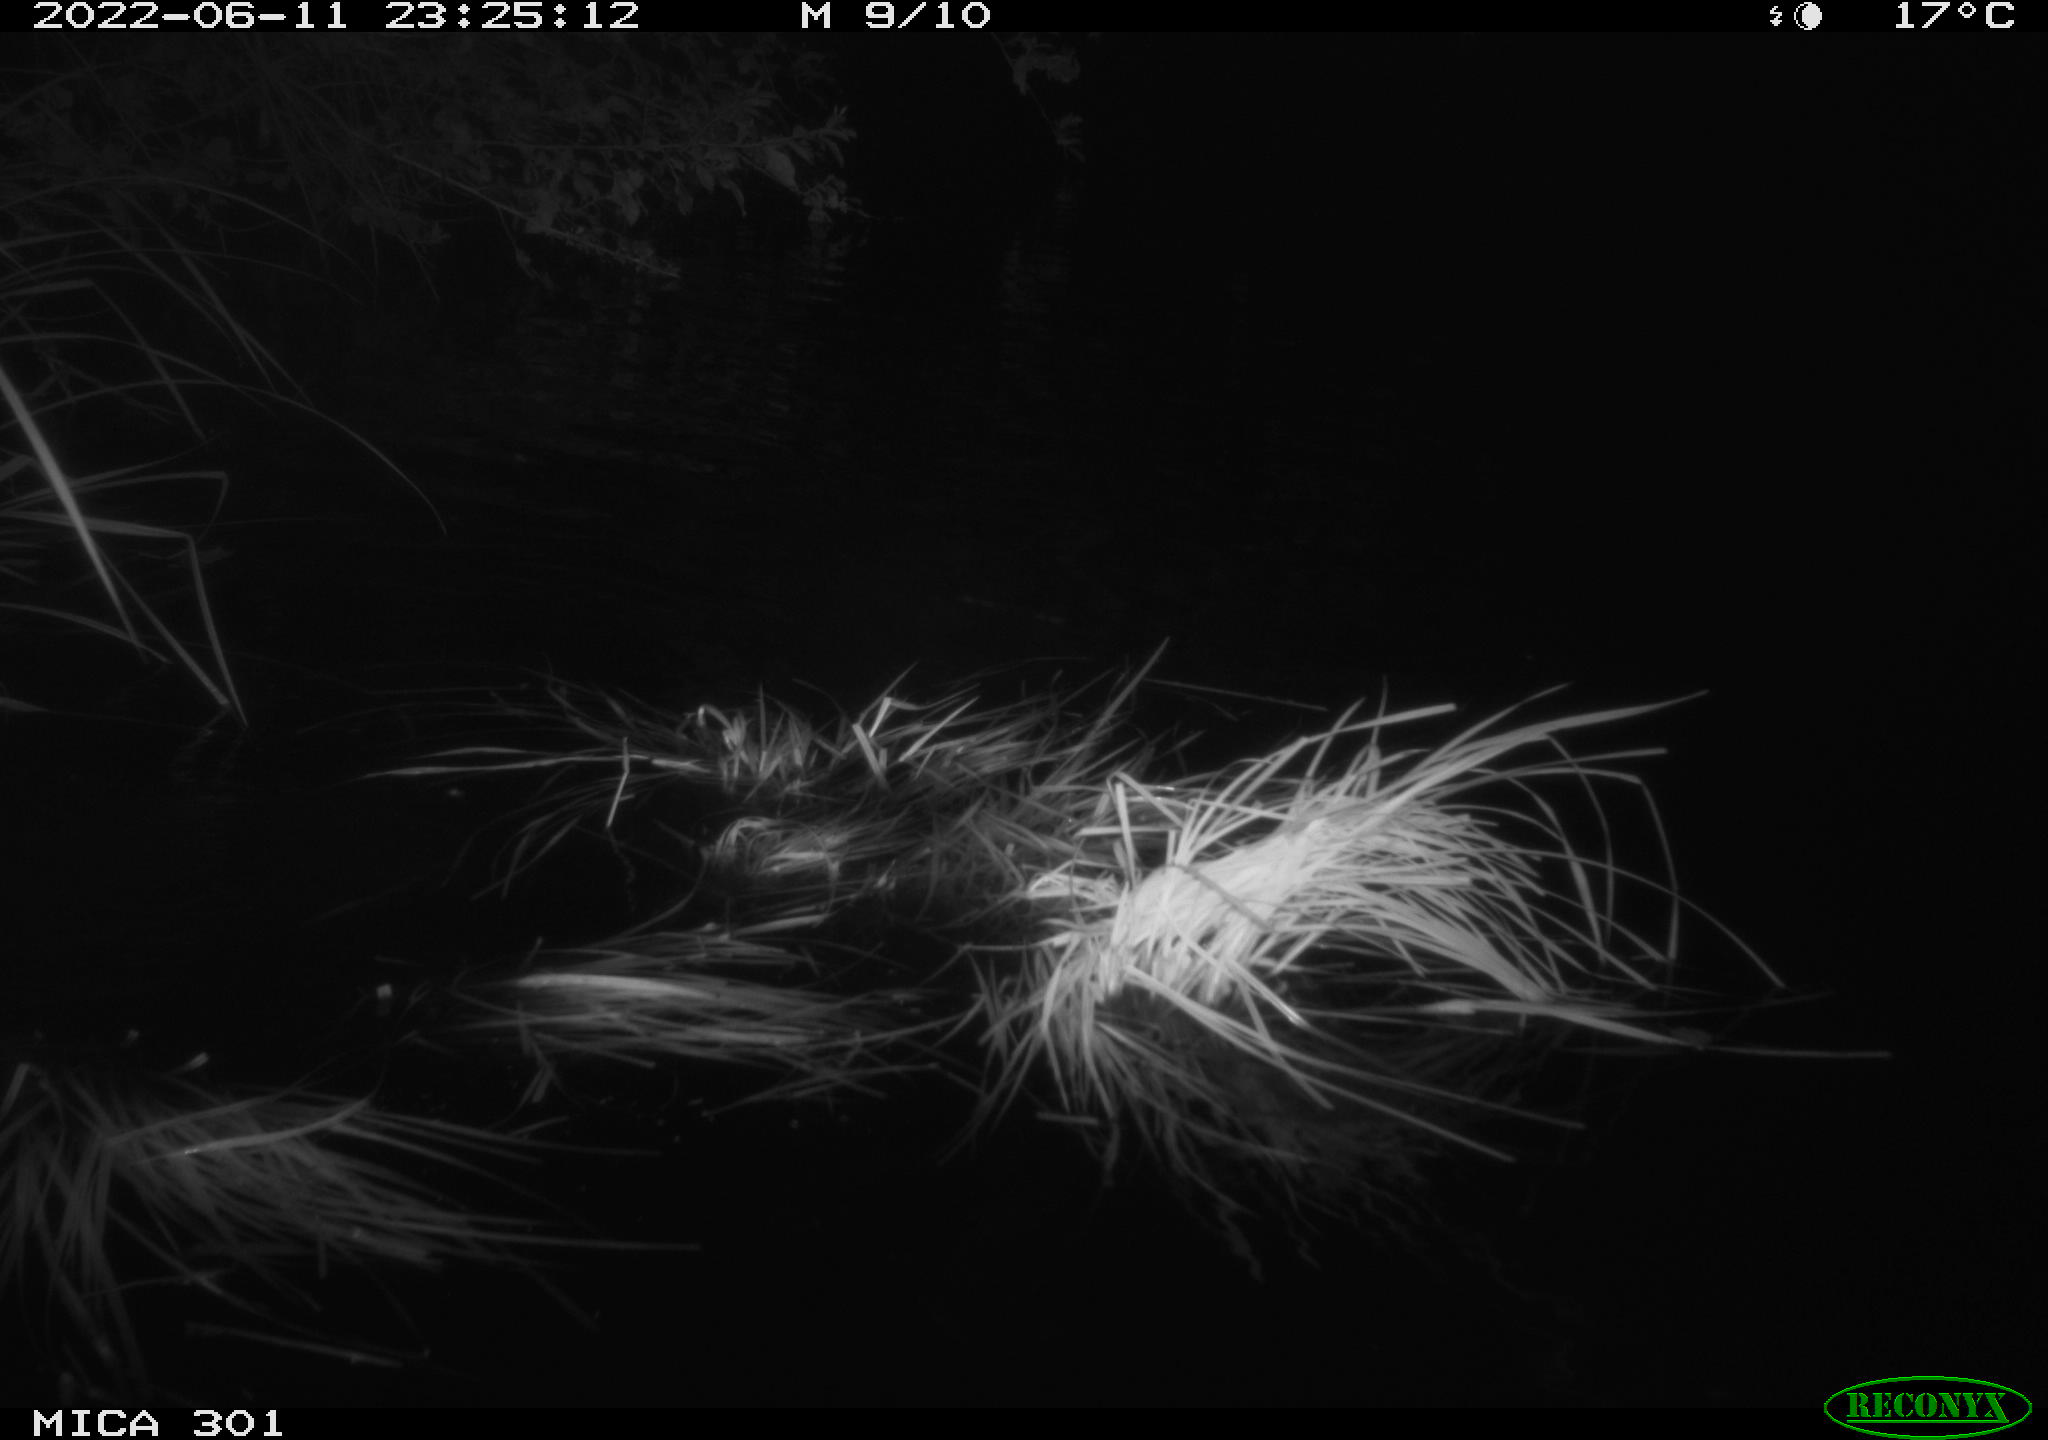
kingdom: Animalia
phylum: Chordata
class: Mammalia
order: Rodentia
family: Castoridae
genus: Castor
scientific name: Castor fiber
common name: Eurasian beaver
